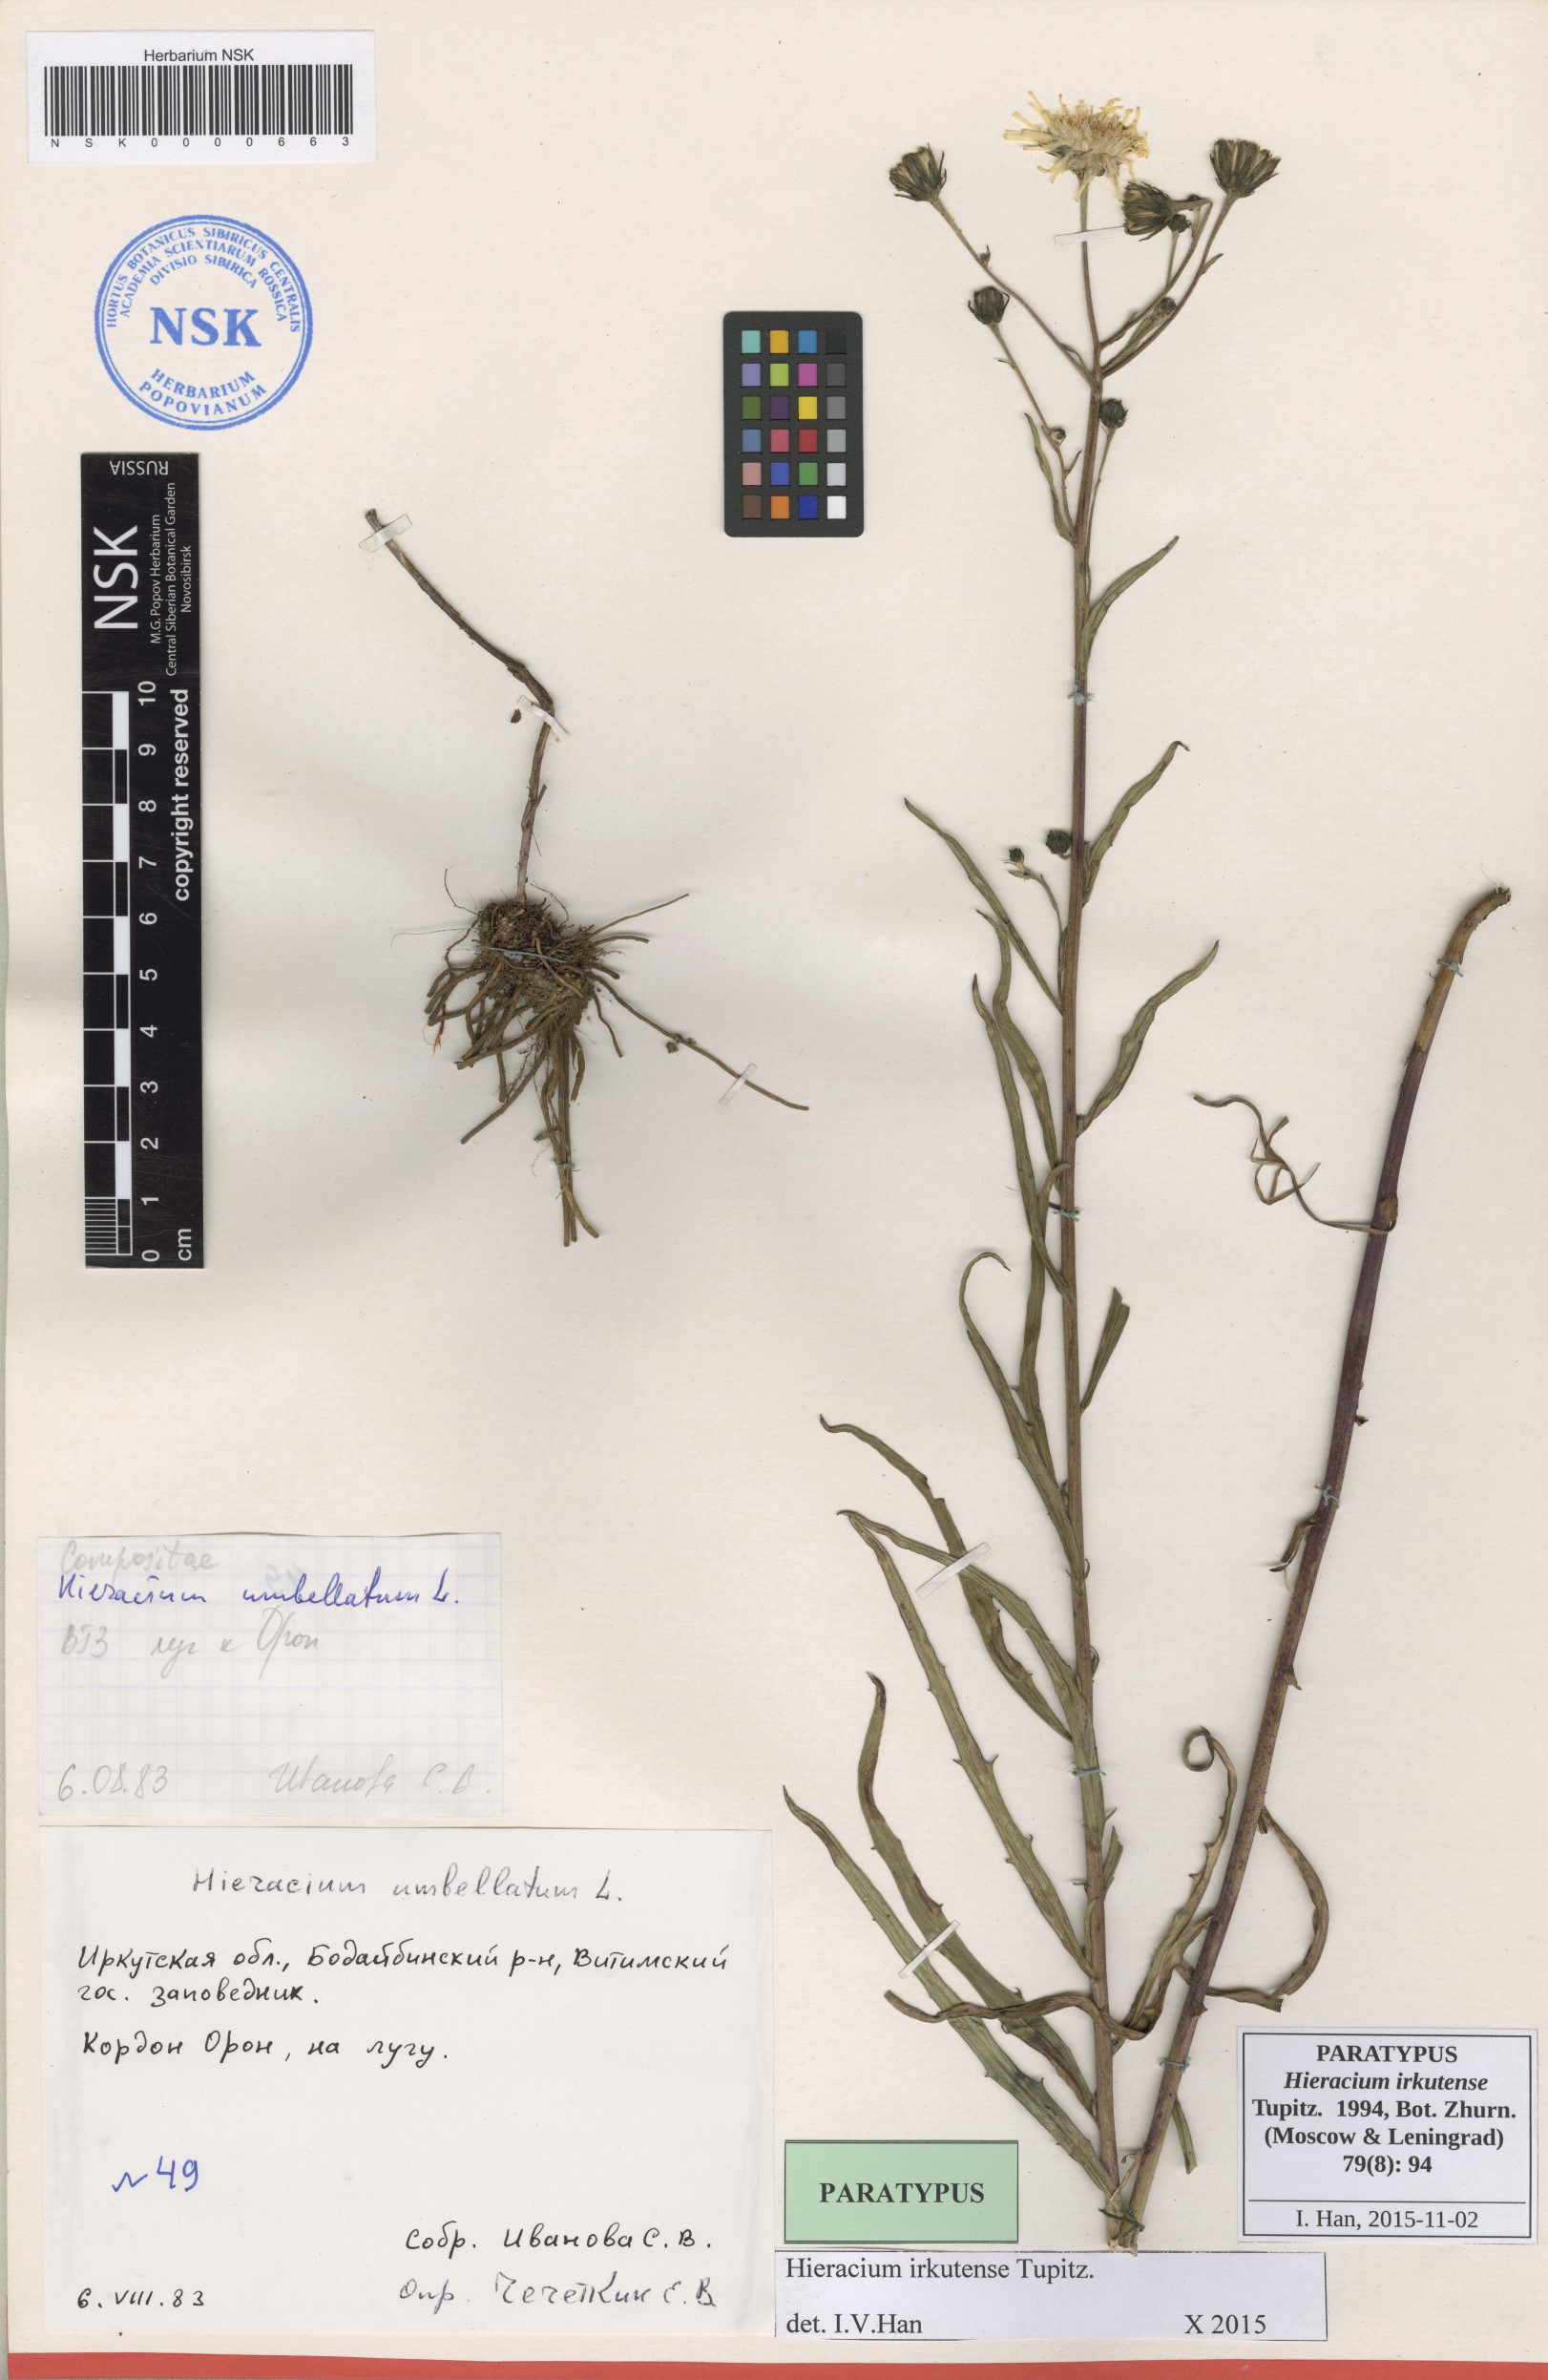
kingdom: Plantae
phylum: Tracheophyta
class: Magnoliopsida
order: Asterales
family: Asteraceae
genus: Hieracium
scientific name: Hieracium irkutense
